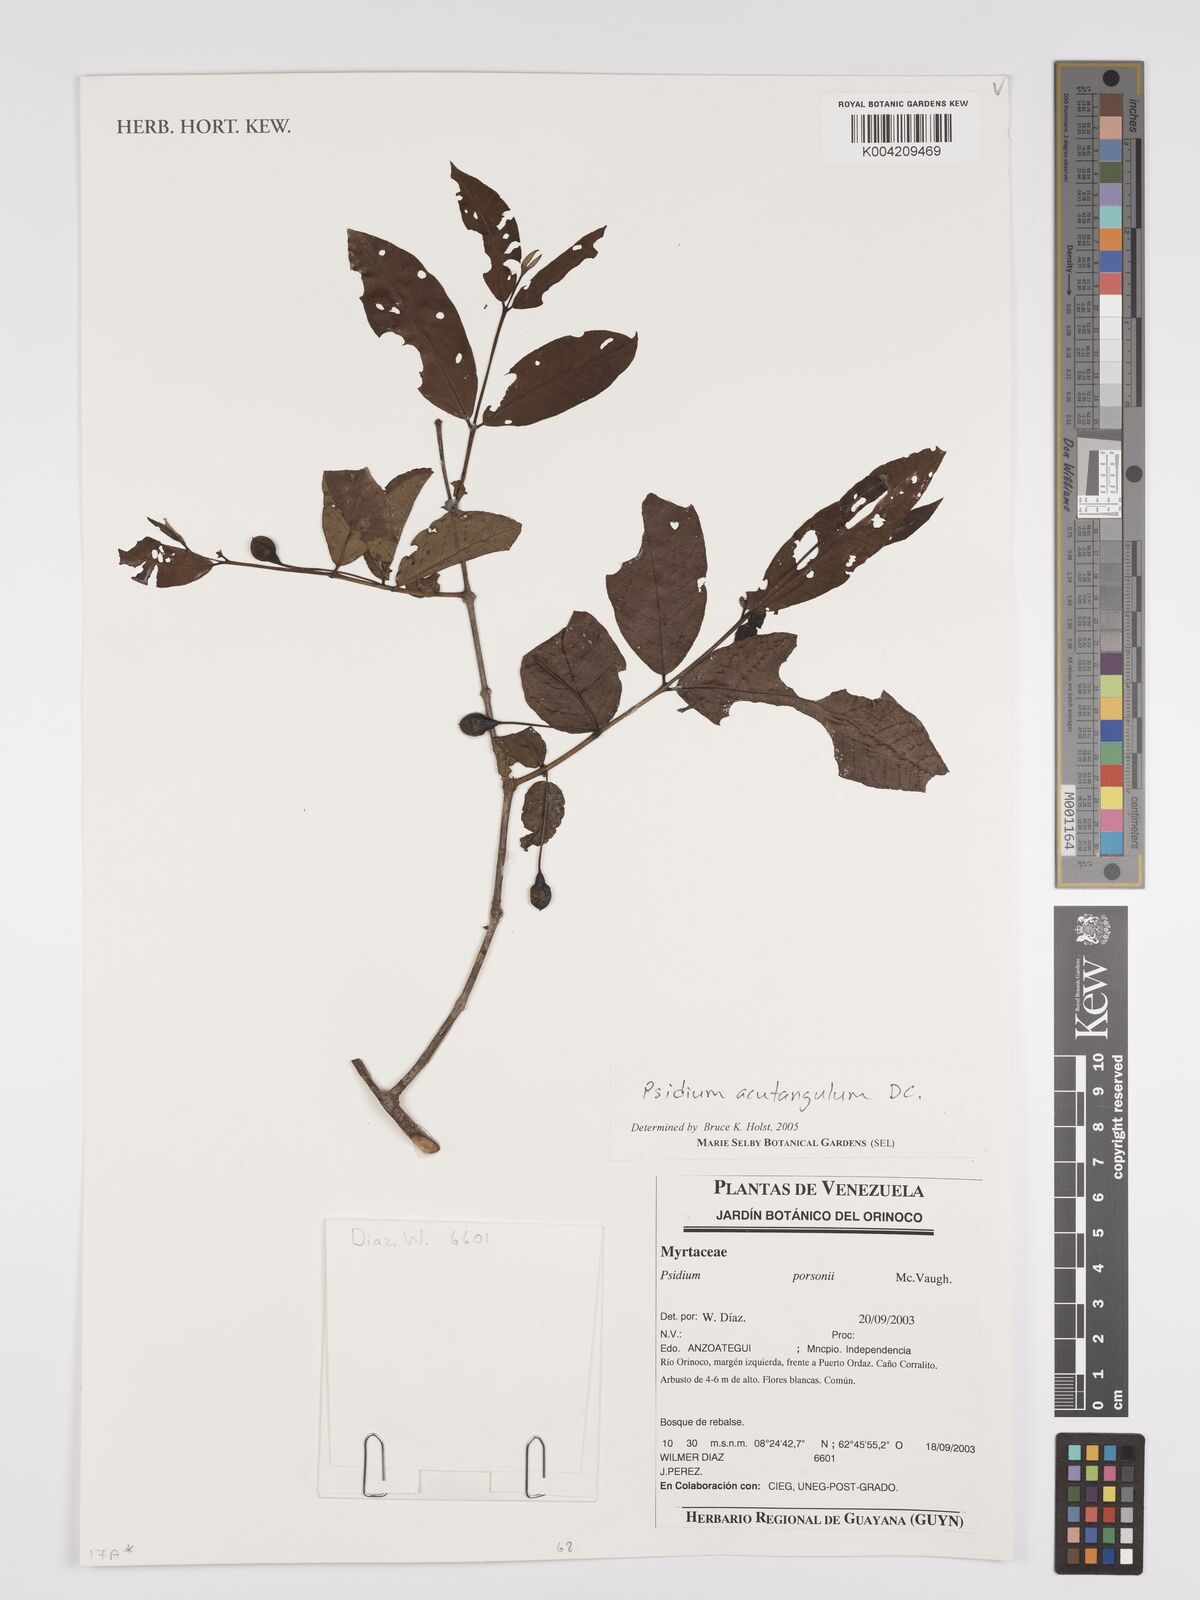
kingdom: Plantae
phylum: Tracheophyta
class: Magnoliopsida
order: Myrtales
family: Myrtaceae
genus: Psidium
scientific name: Psidium acutangulum
